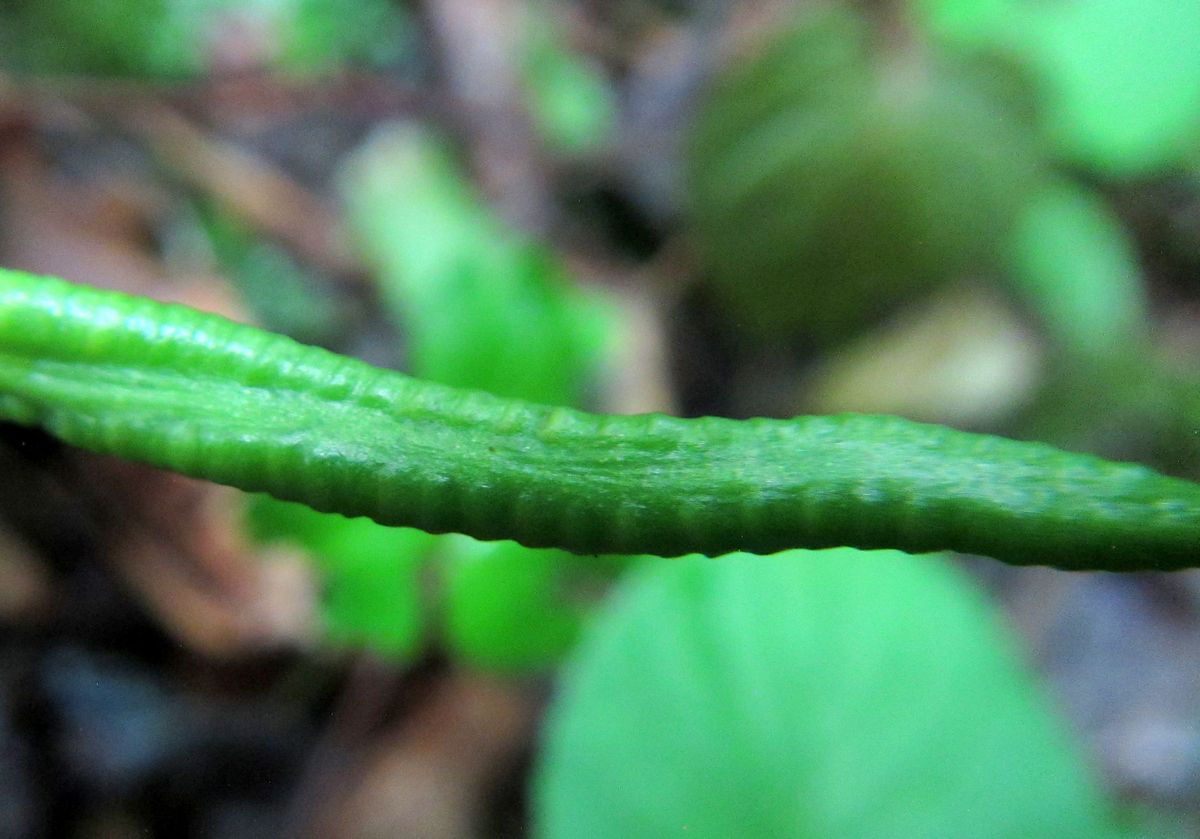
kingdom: Plantae
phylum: Tracheophyta
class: Polypodiopsida
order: Ophioglossales
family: Ophioglossaceae
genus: Ophioglossum
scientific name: Ophioglossum vulgatum
